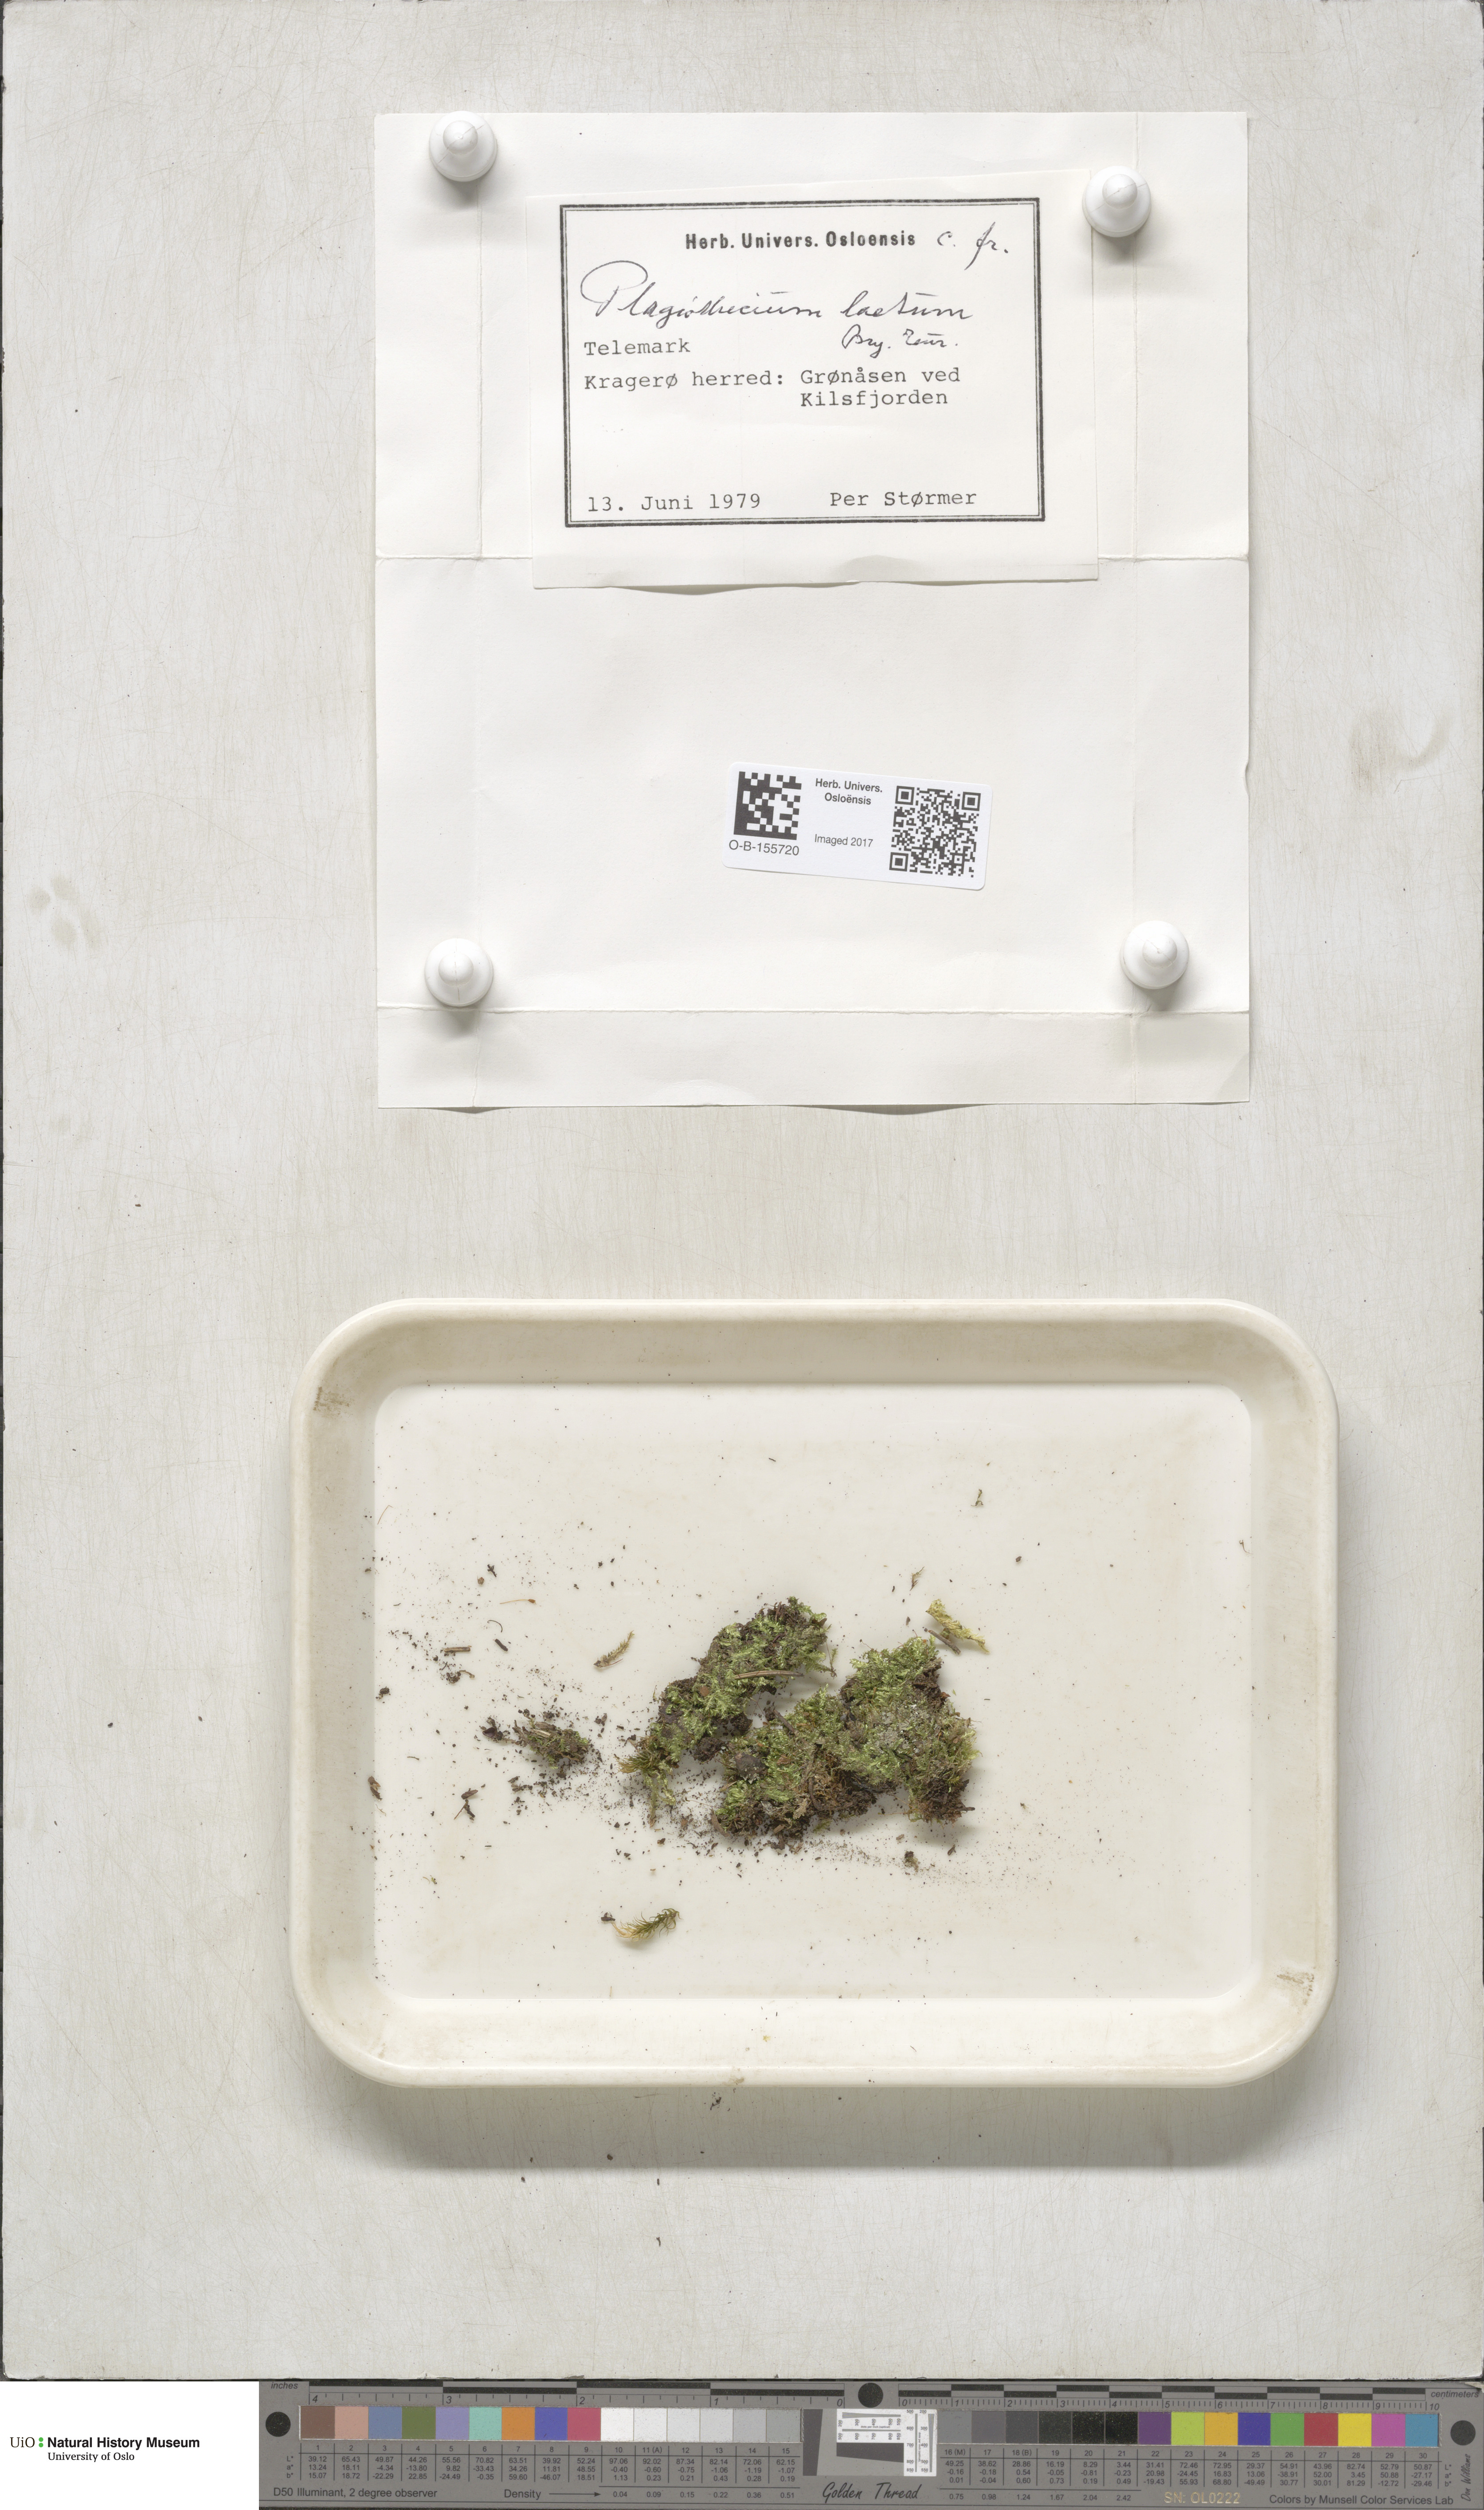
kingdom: Plantae
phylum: Bryophyta
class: Bryopsida
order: Hypnales
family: Plagiotheciaceae
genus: Plagiothecium
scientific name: Plagiothecium laetum
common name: Bright silk moss
